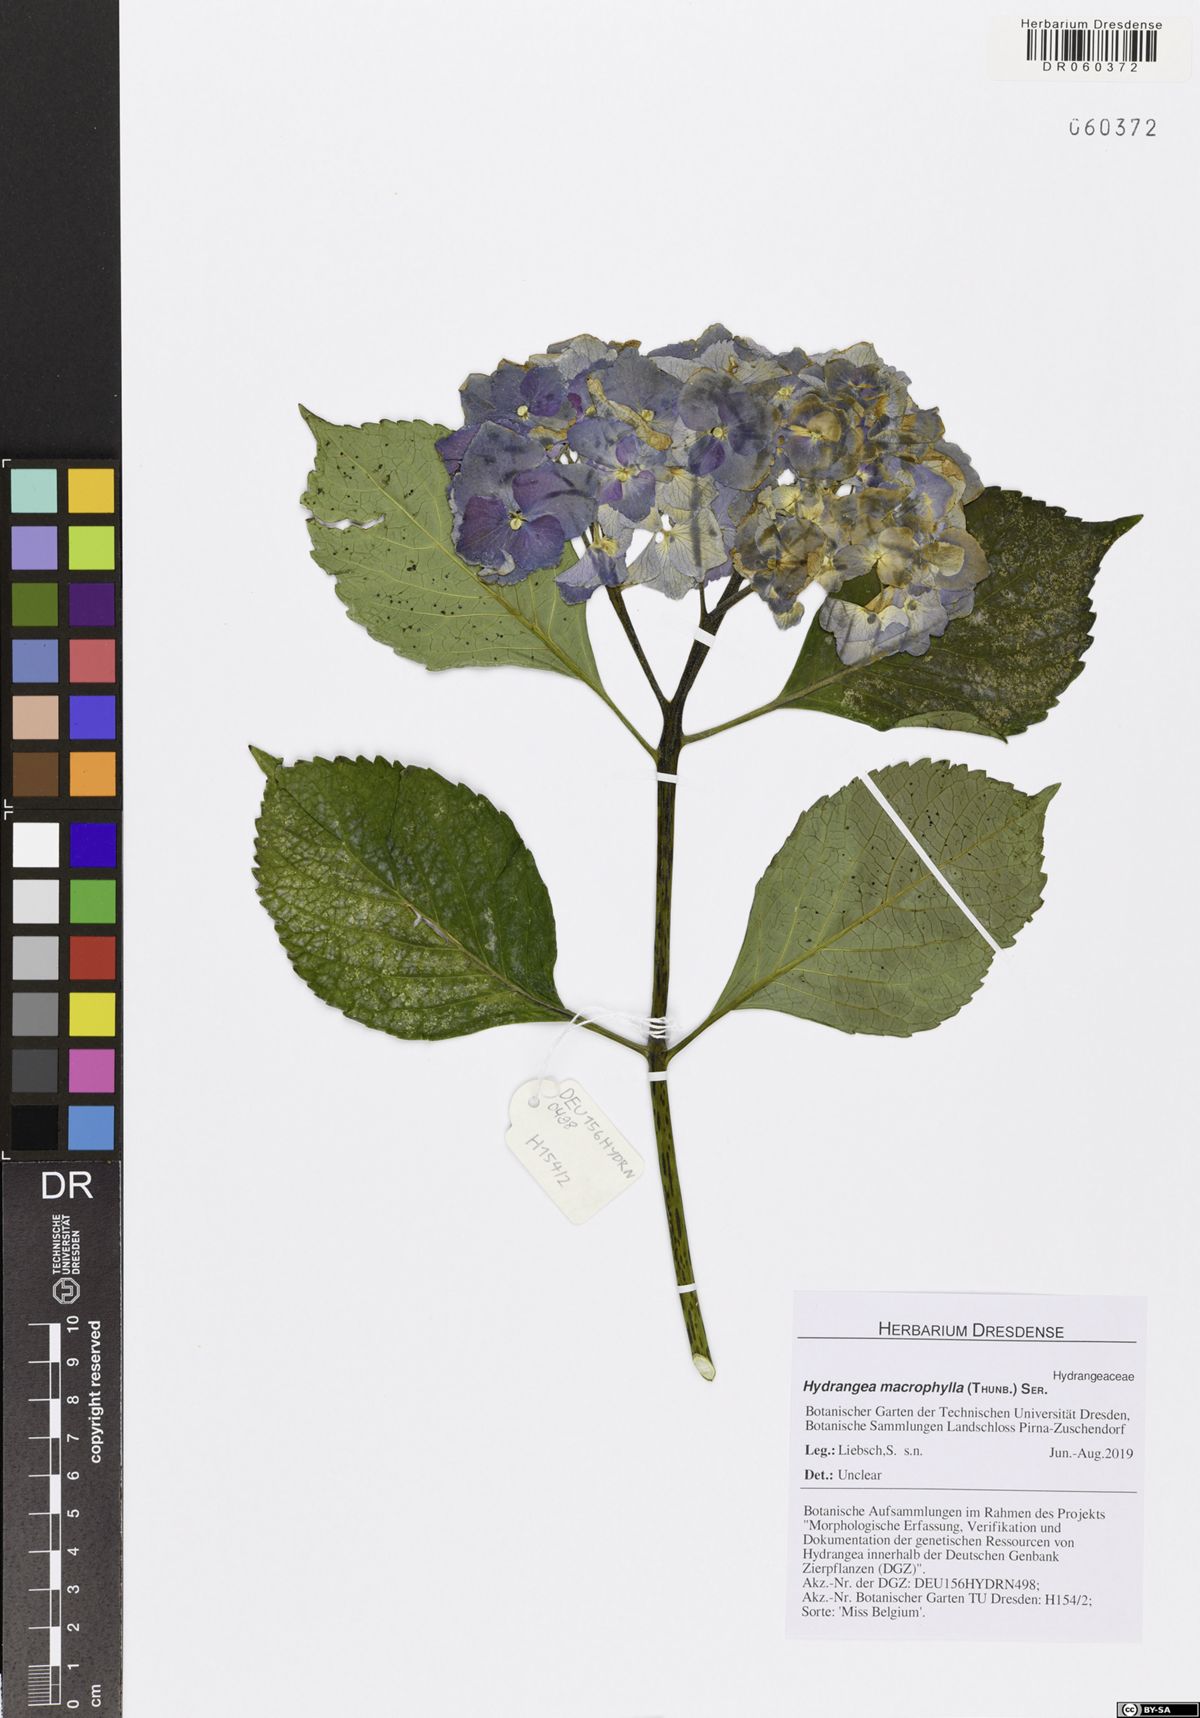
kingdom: Plantae
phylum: Tracheophyta
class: Magnoliopsida
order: Cornales
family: Hydrangeaceae
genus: Hydrangea
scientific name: Hydrangea macrophylla
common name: Hydrangea
